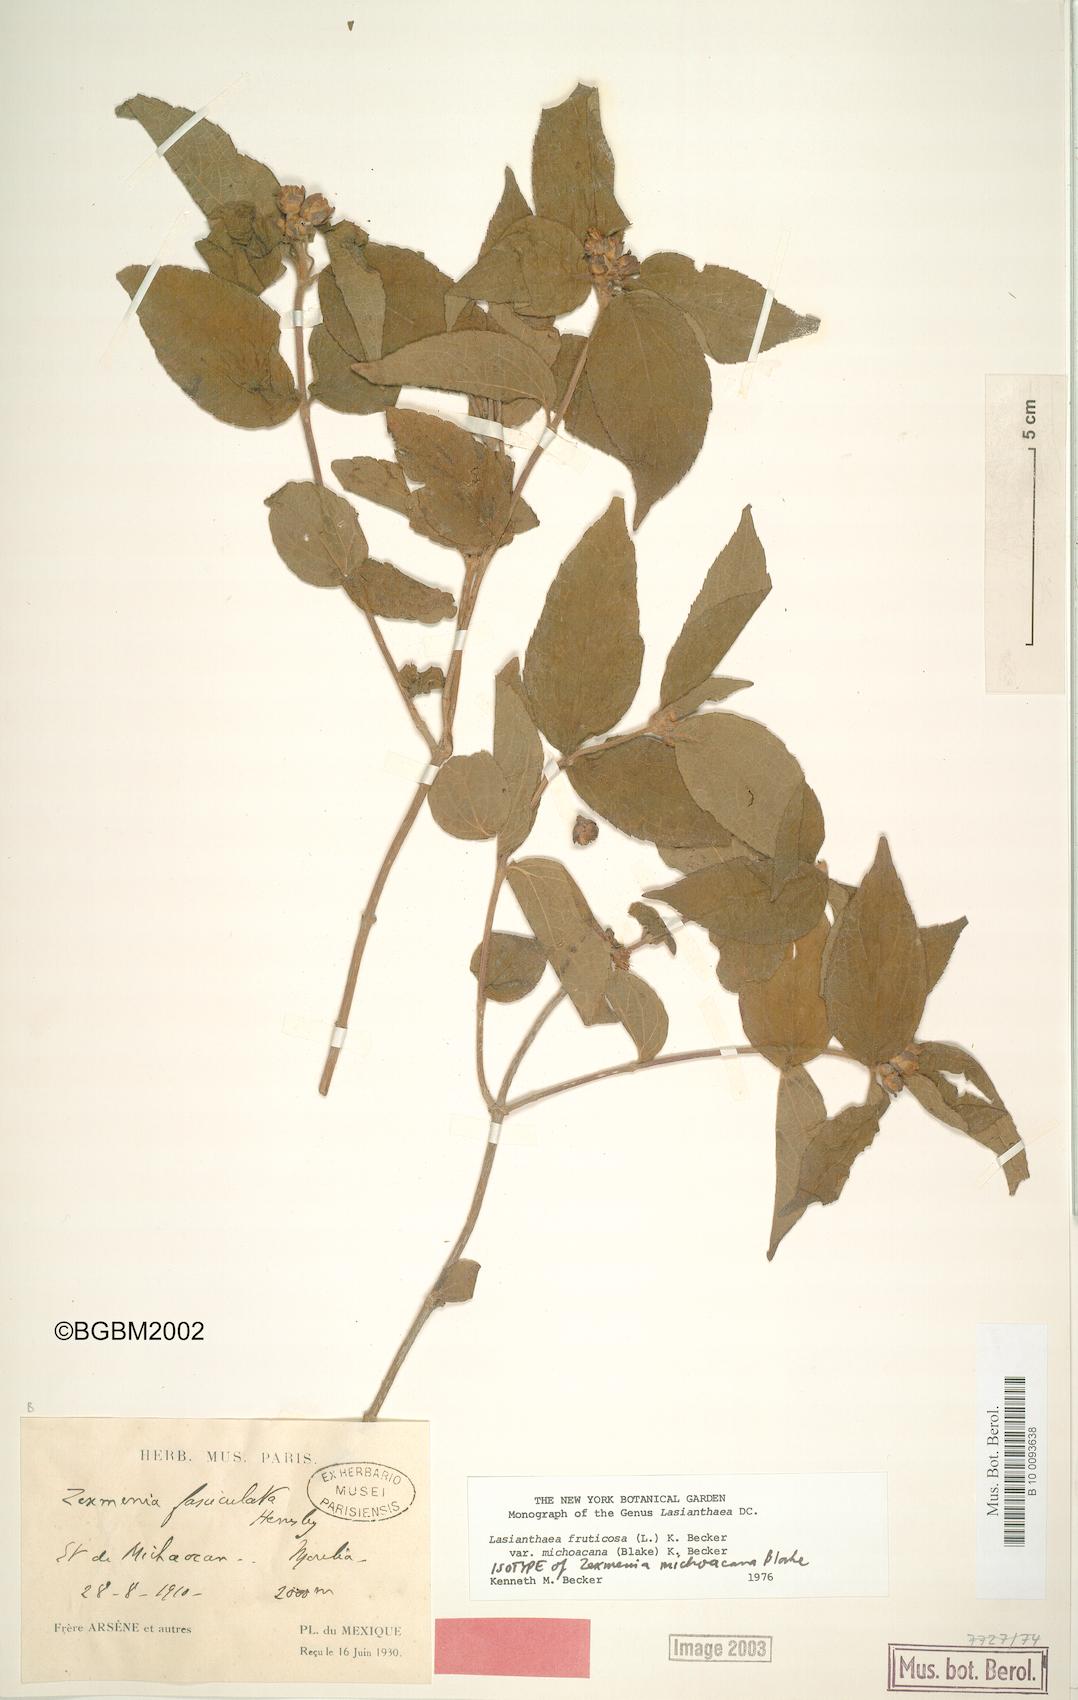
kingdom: Plantae
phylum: Tracheophyta
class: Magnoliopsida
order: Asterales
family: Asteraceae
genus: Lasianthaea
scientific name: Lasianthaea fruticosa
